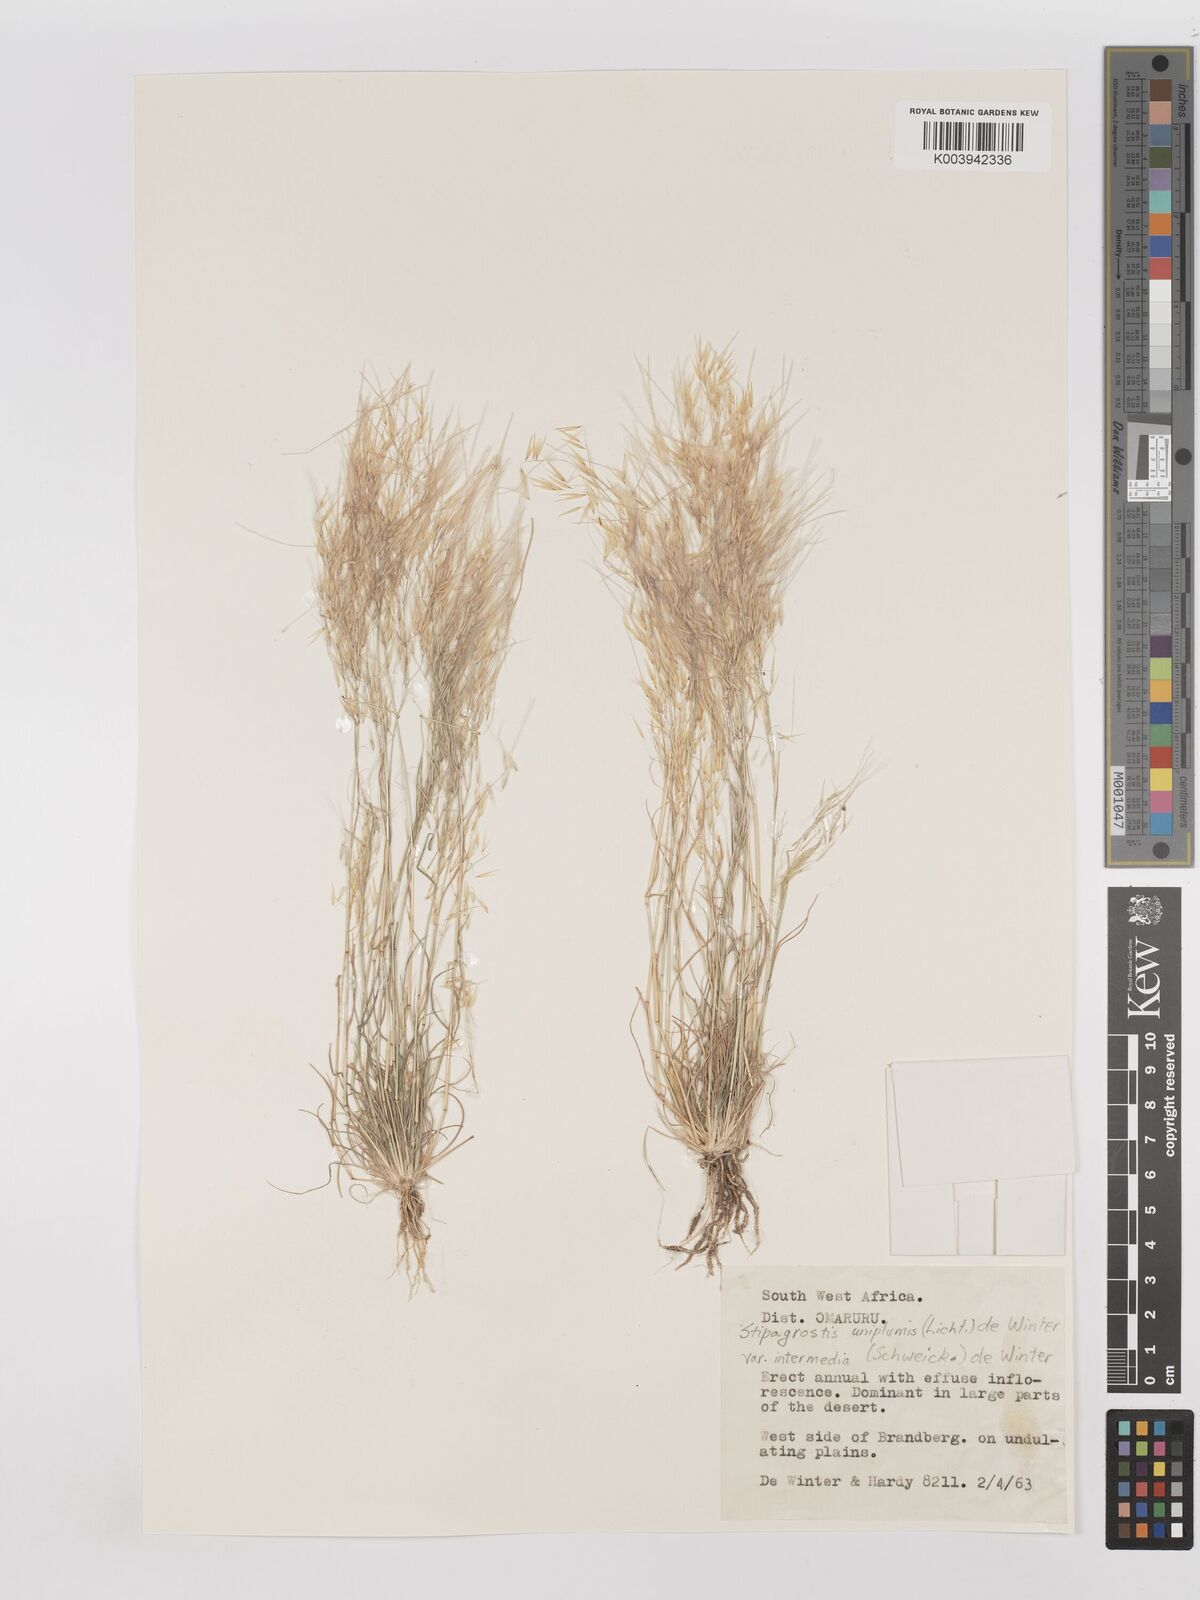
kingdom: Plantae
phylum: Tracheophyta
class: Liliopsida
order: Poales
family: Poaceae
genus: Stipagrostis
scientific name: Stipagrostis uniplumis
